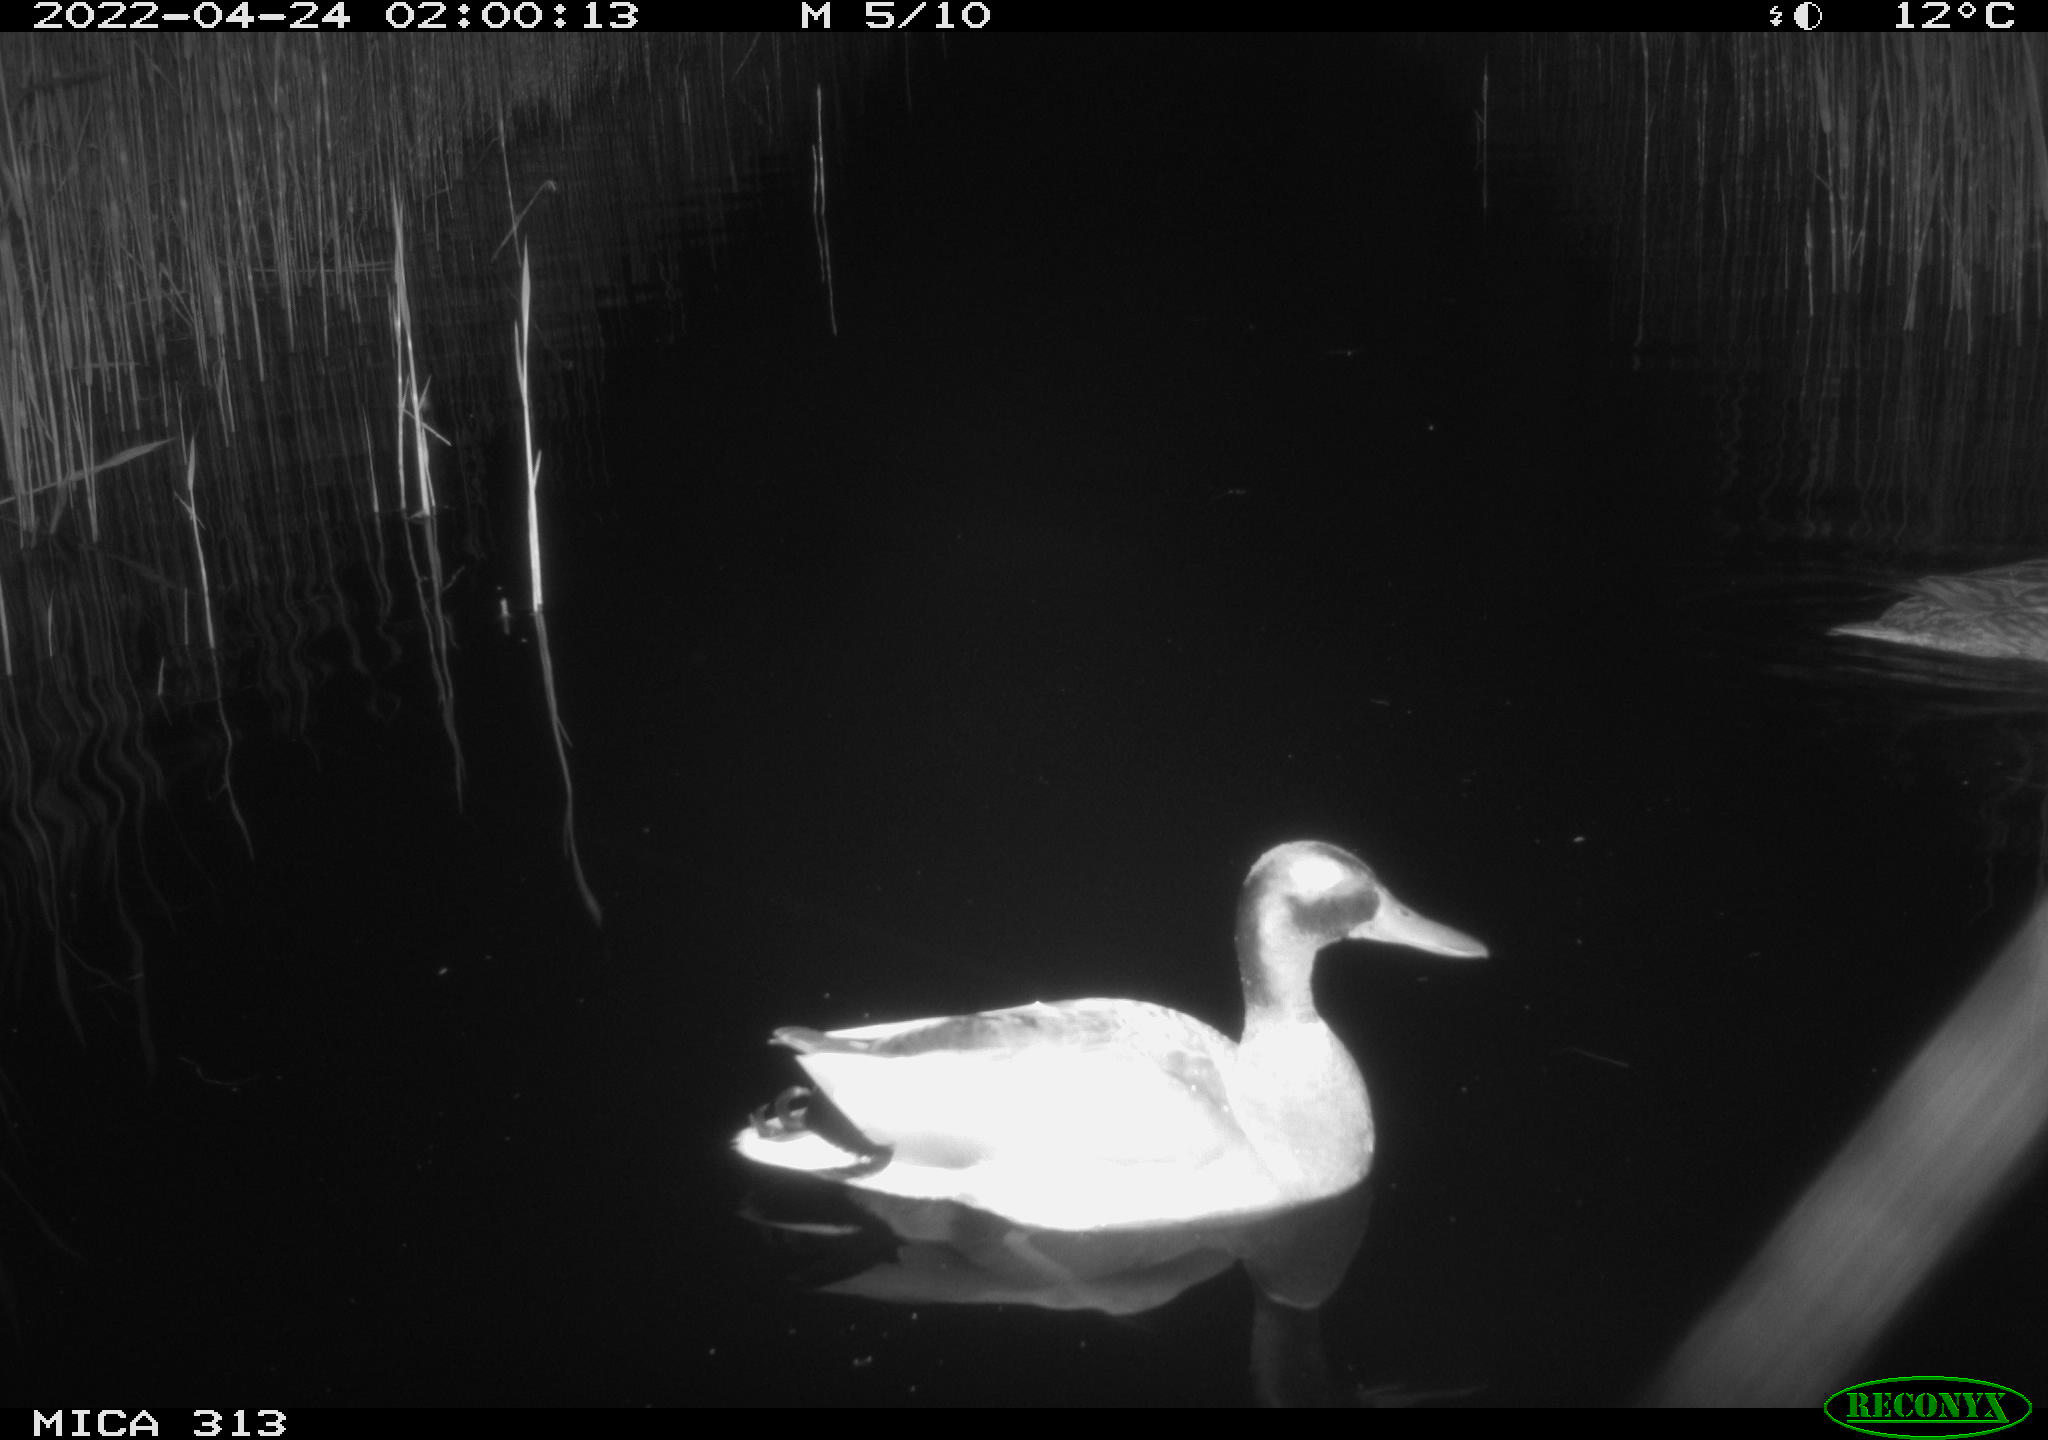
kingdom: Animalia
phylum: Chordata
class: Aves
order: Pelecaniformes
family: Ardeidae
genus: Ardea
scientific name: Ardea
